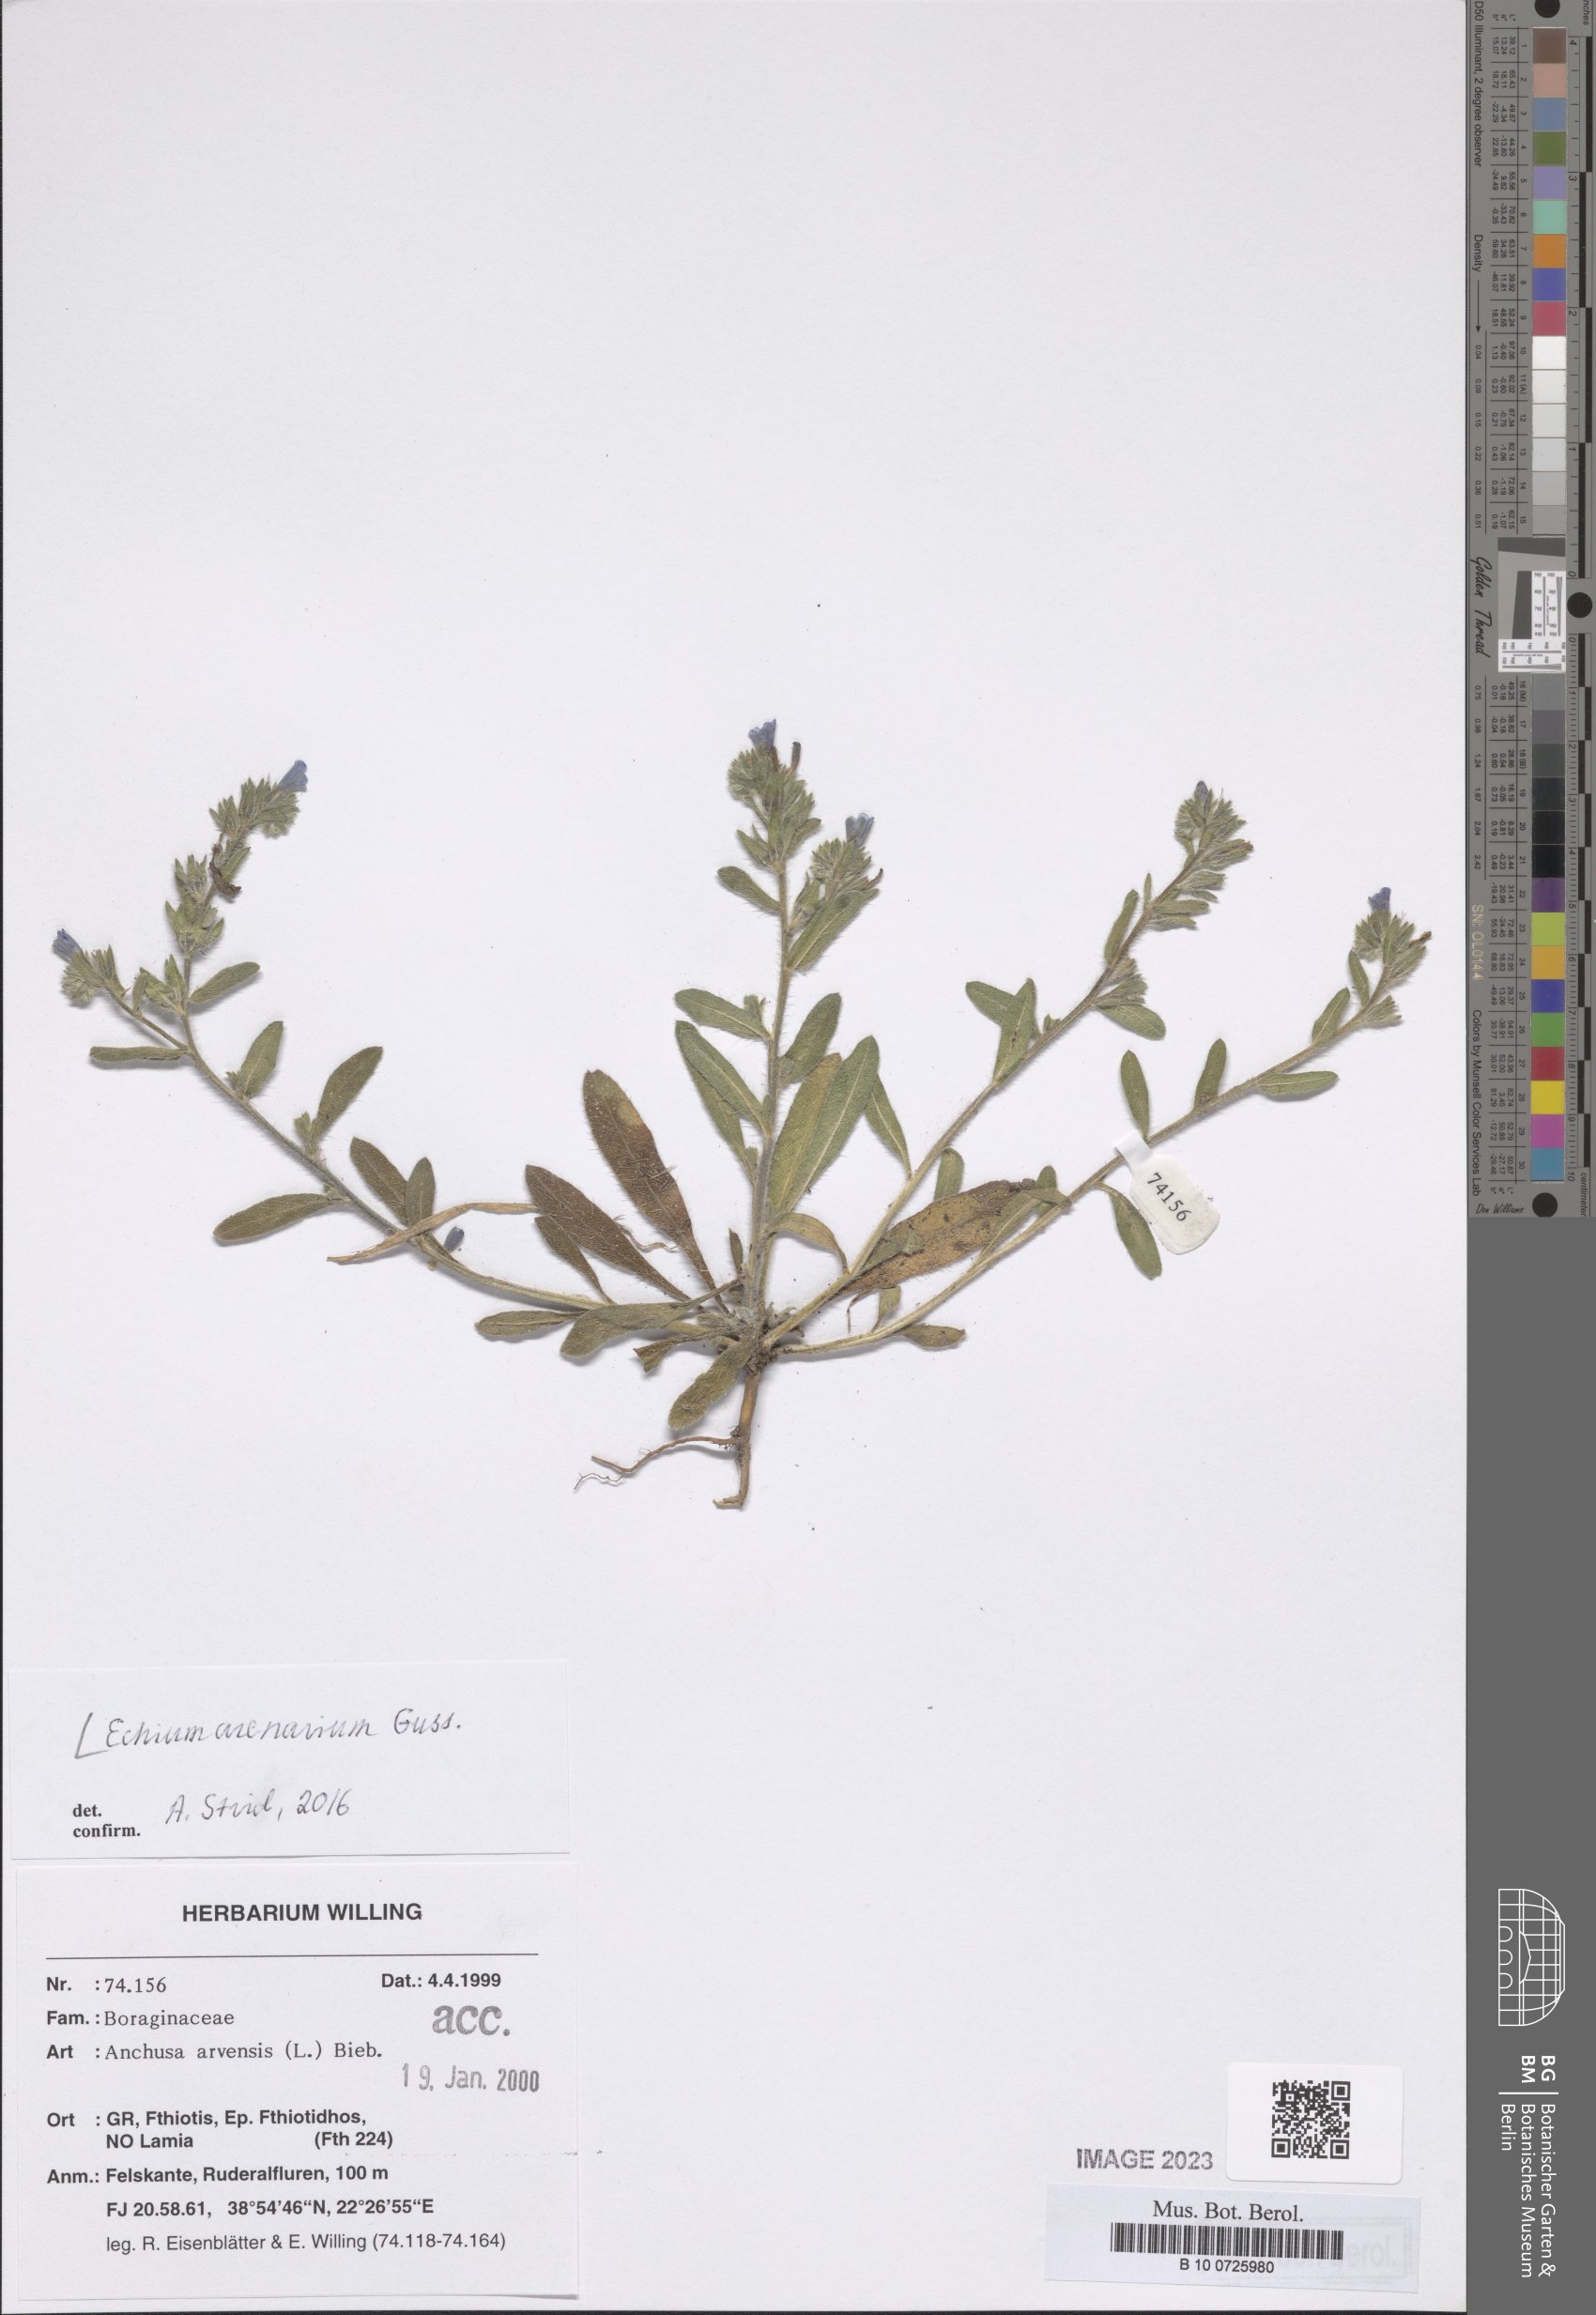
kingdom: Plantae
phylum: Tracheophyta
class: Magnoliopsida
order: Boraginales
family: Boraginaceae
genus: Echium
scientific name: Echium arenarium
